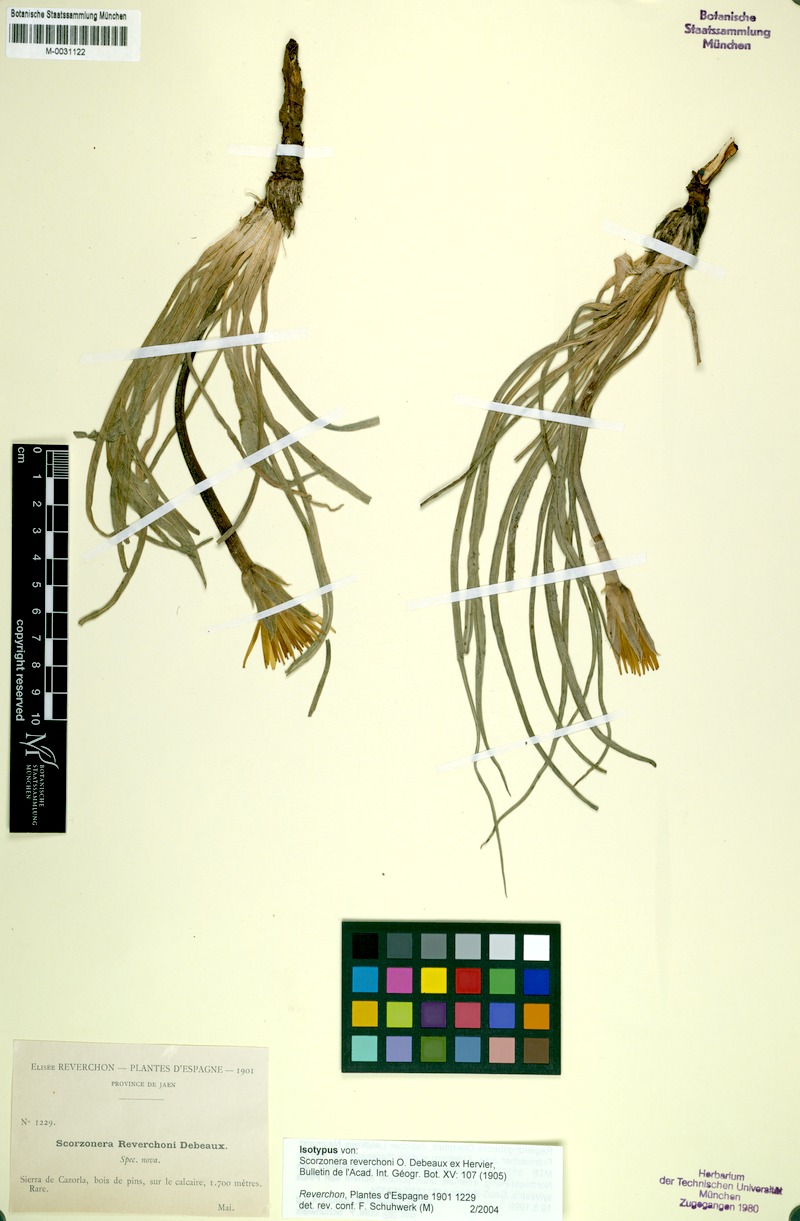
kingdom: Plantae
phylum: Tracheophyta
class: Magnoliopsida
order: Asterales
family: Asteraceae
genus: Pseudopodospermum
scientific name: Pseudopodospermum reverchonii
